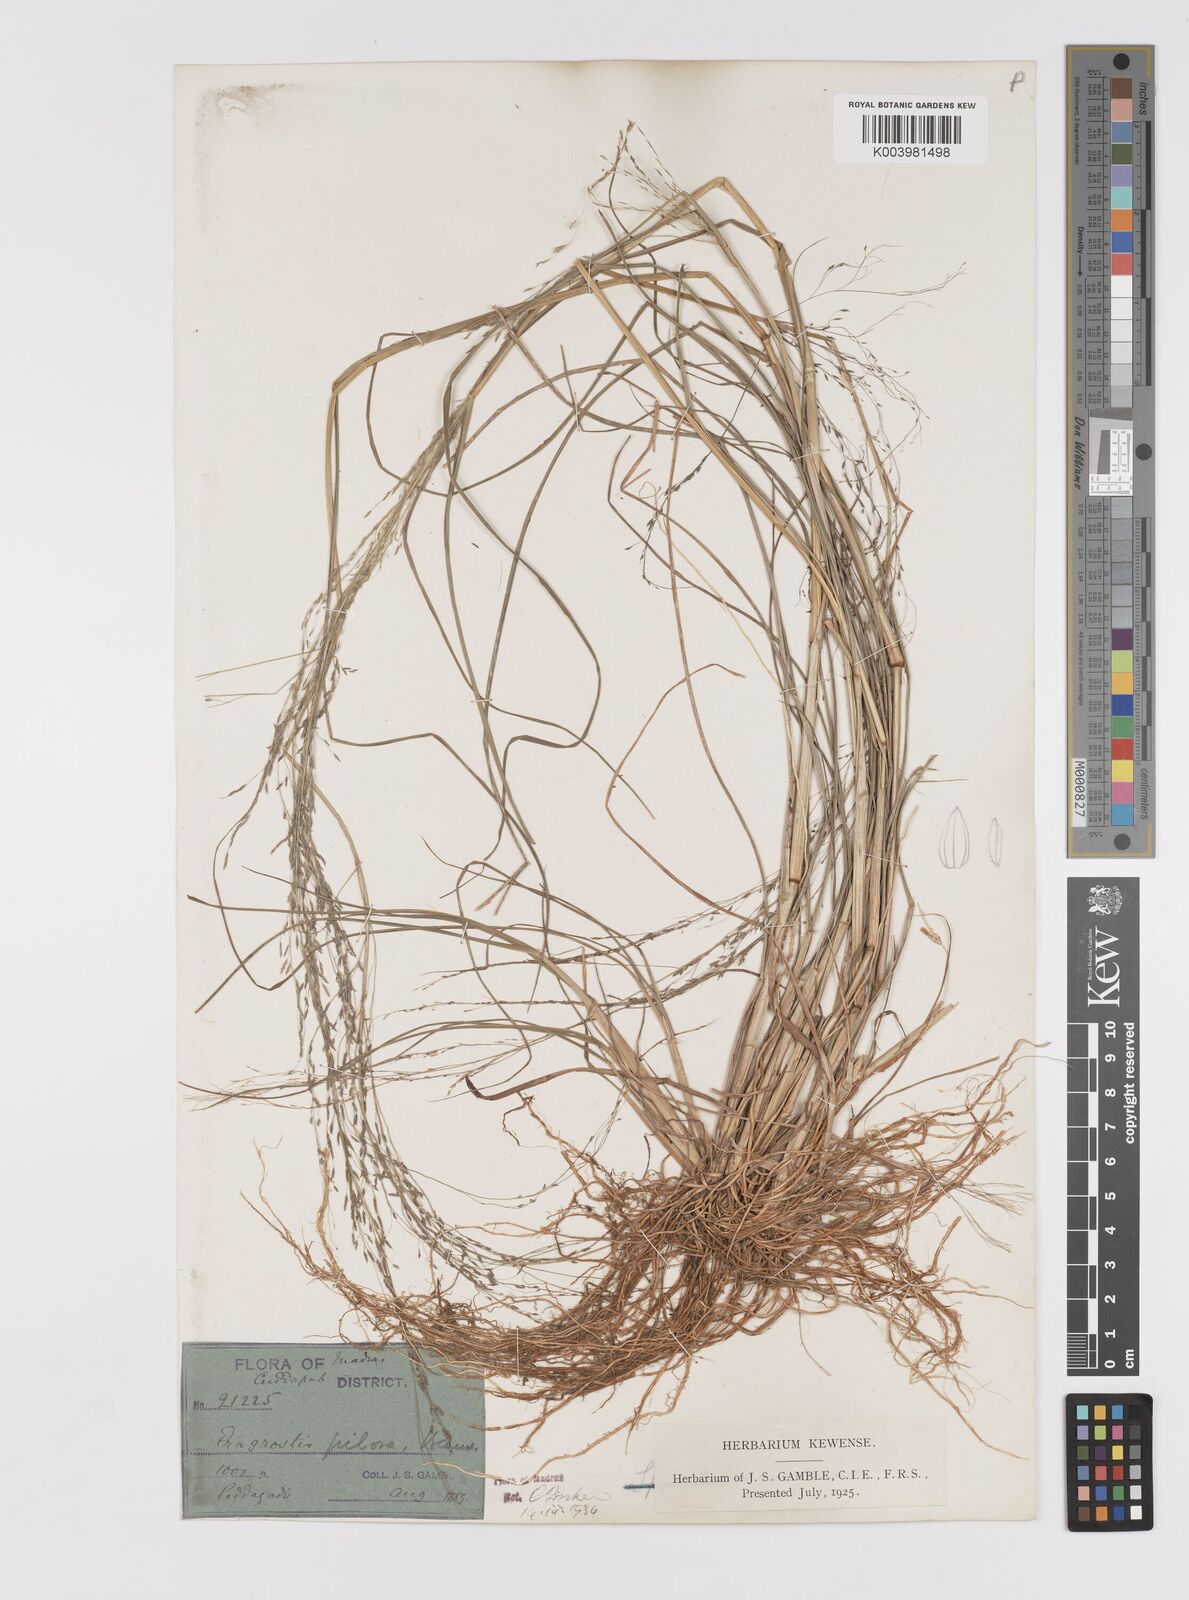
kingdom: Plantae
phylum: Tracheophyta
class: Liliopsida
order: Poales
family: Poaceae
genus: Eragrostis
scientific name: Eragrostis pilosa
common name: Indian lovegrass
